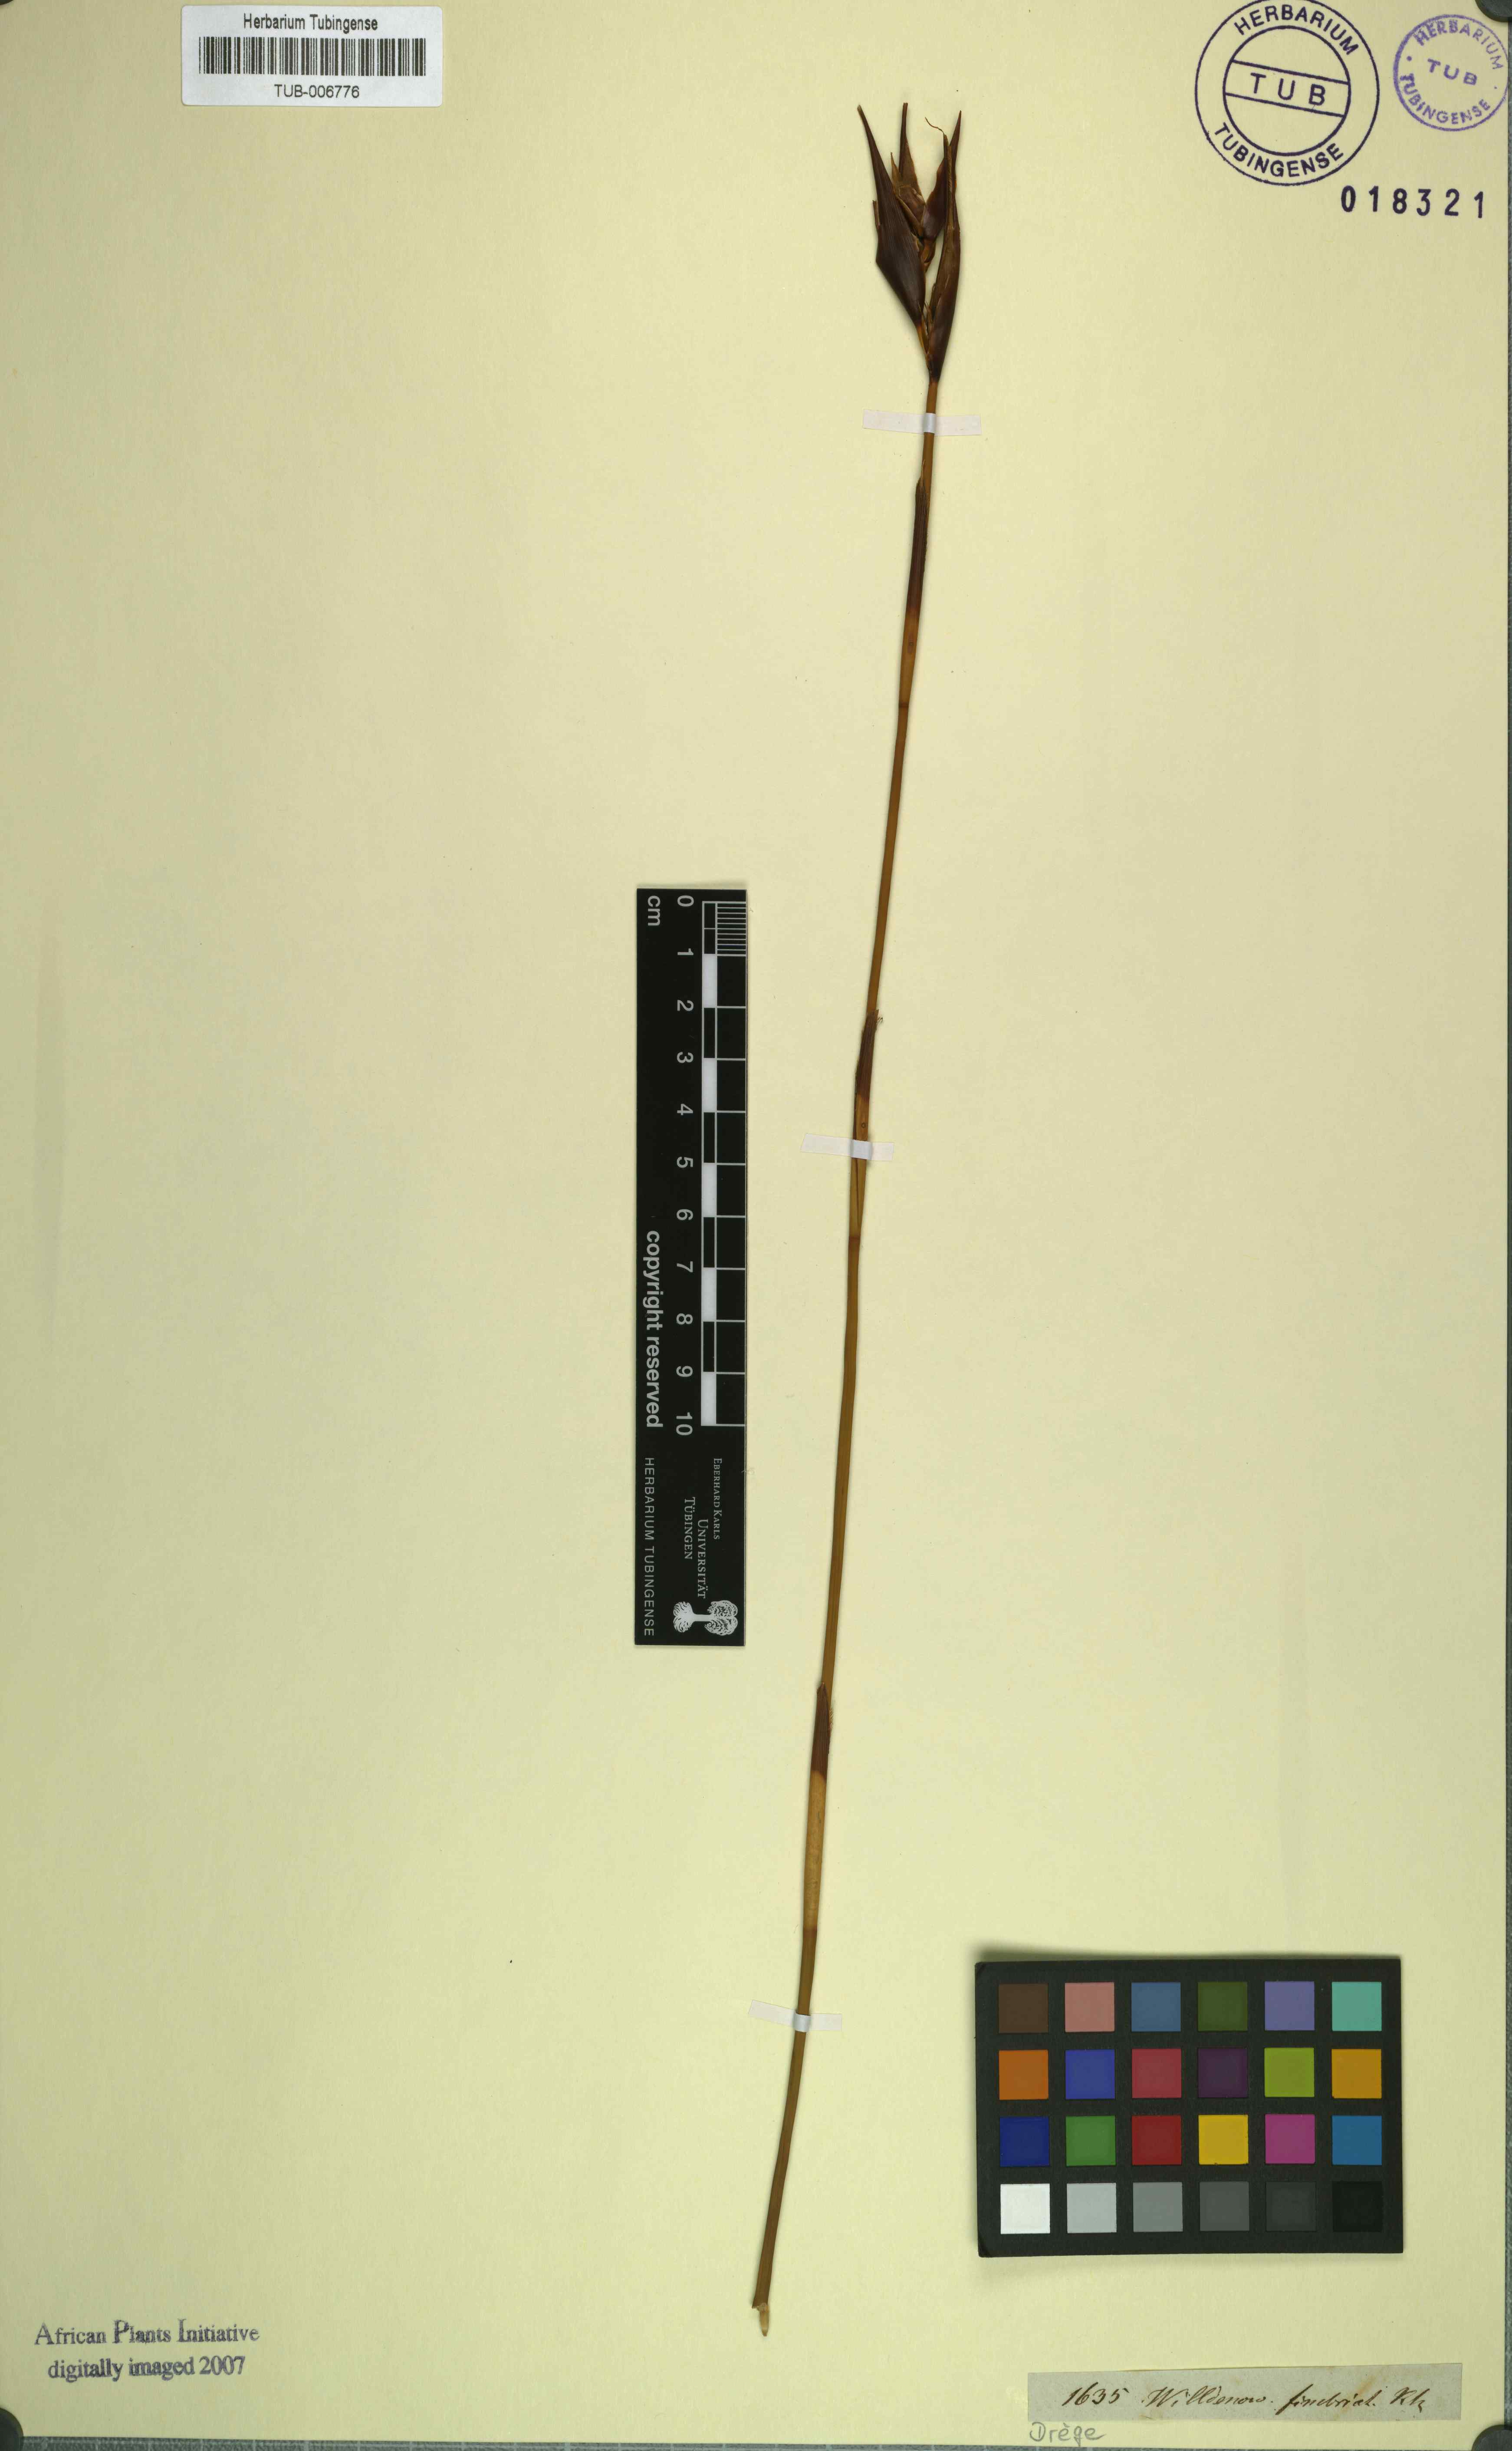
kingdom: Plantae
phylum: Tracheophyta
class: Liliopsida
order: Poales
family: Restionaceae
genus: Ceratocaryum
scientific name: Ceratocaryum fimbriatum
